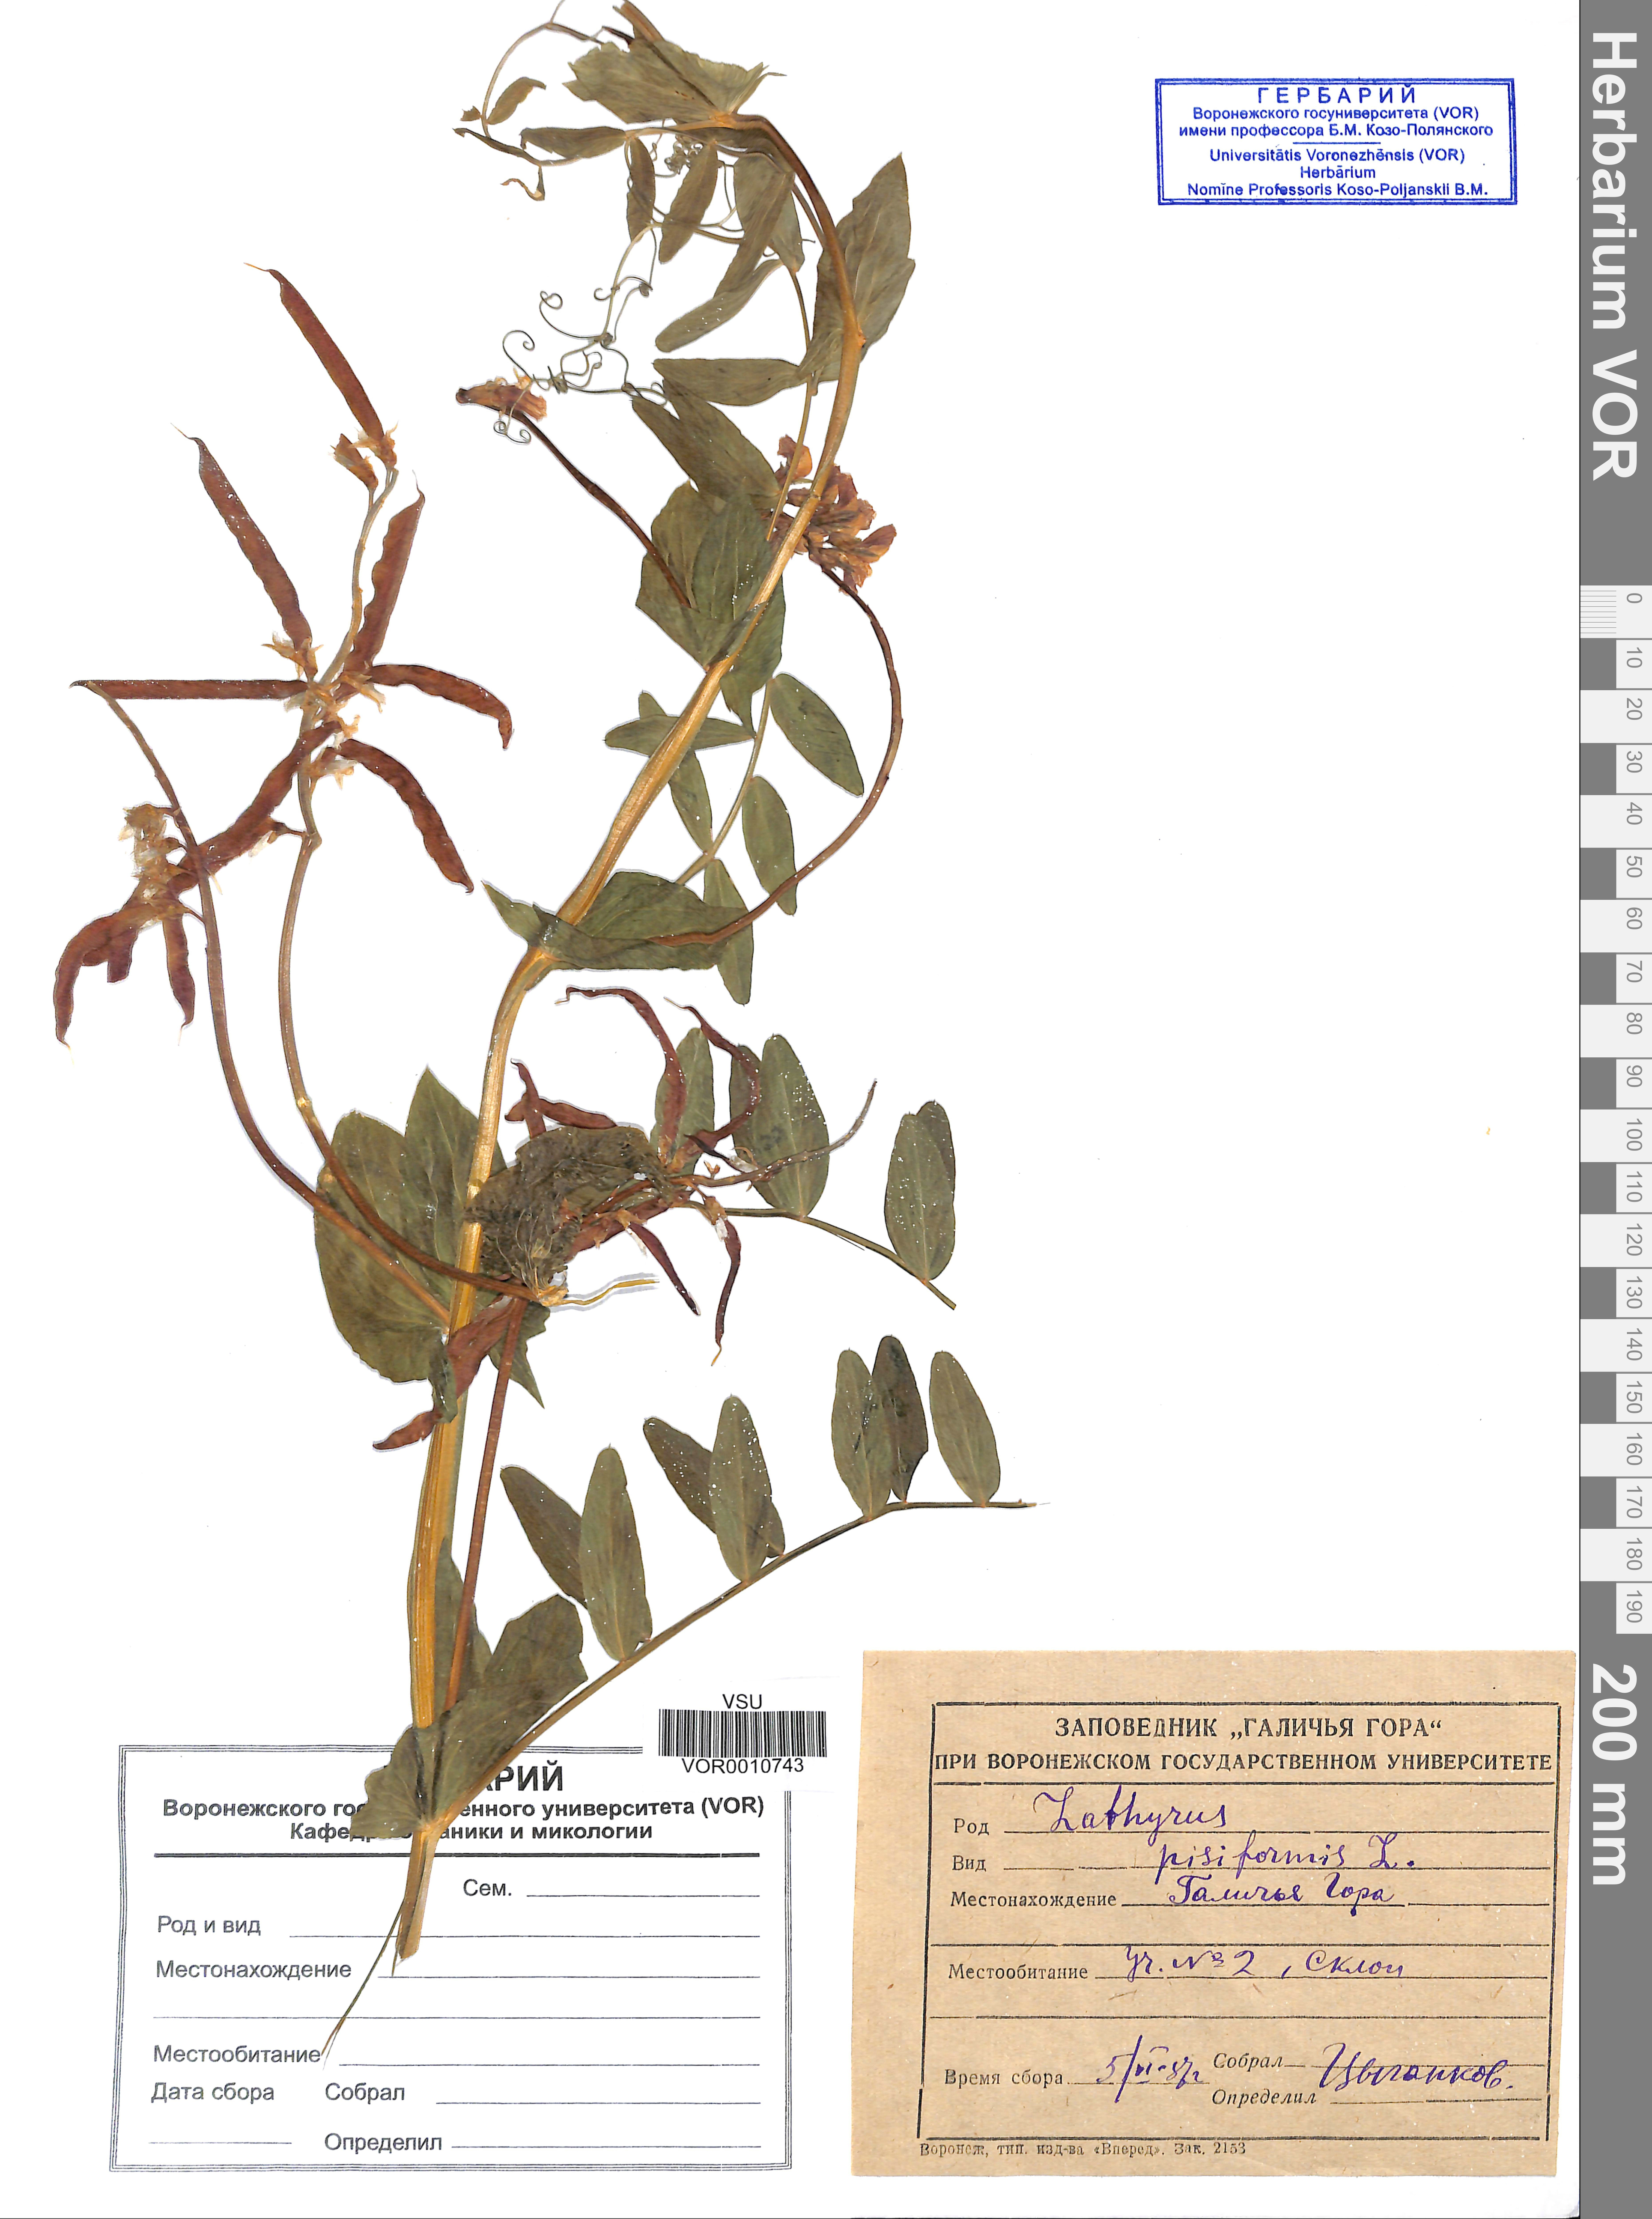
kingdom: Plantae
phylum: Tracheophyta
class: Magnoliopsida
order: Fabales
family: Fabaceae
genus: Lathyrus
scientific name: Lathyrus pisiformis
